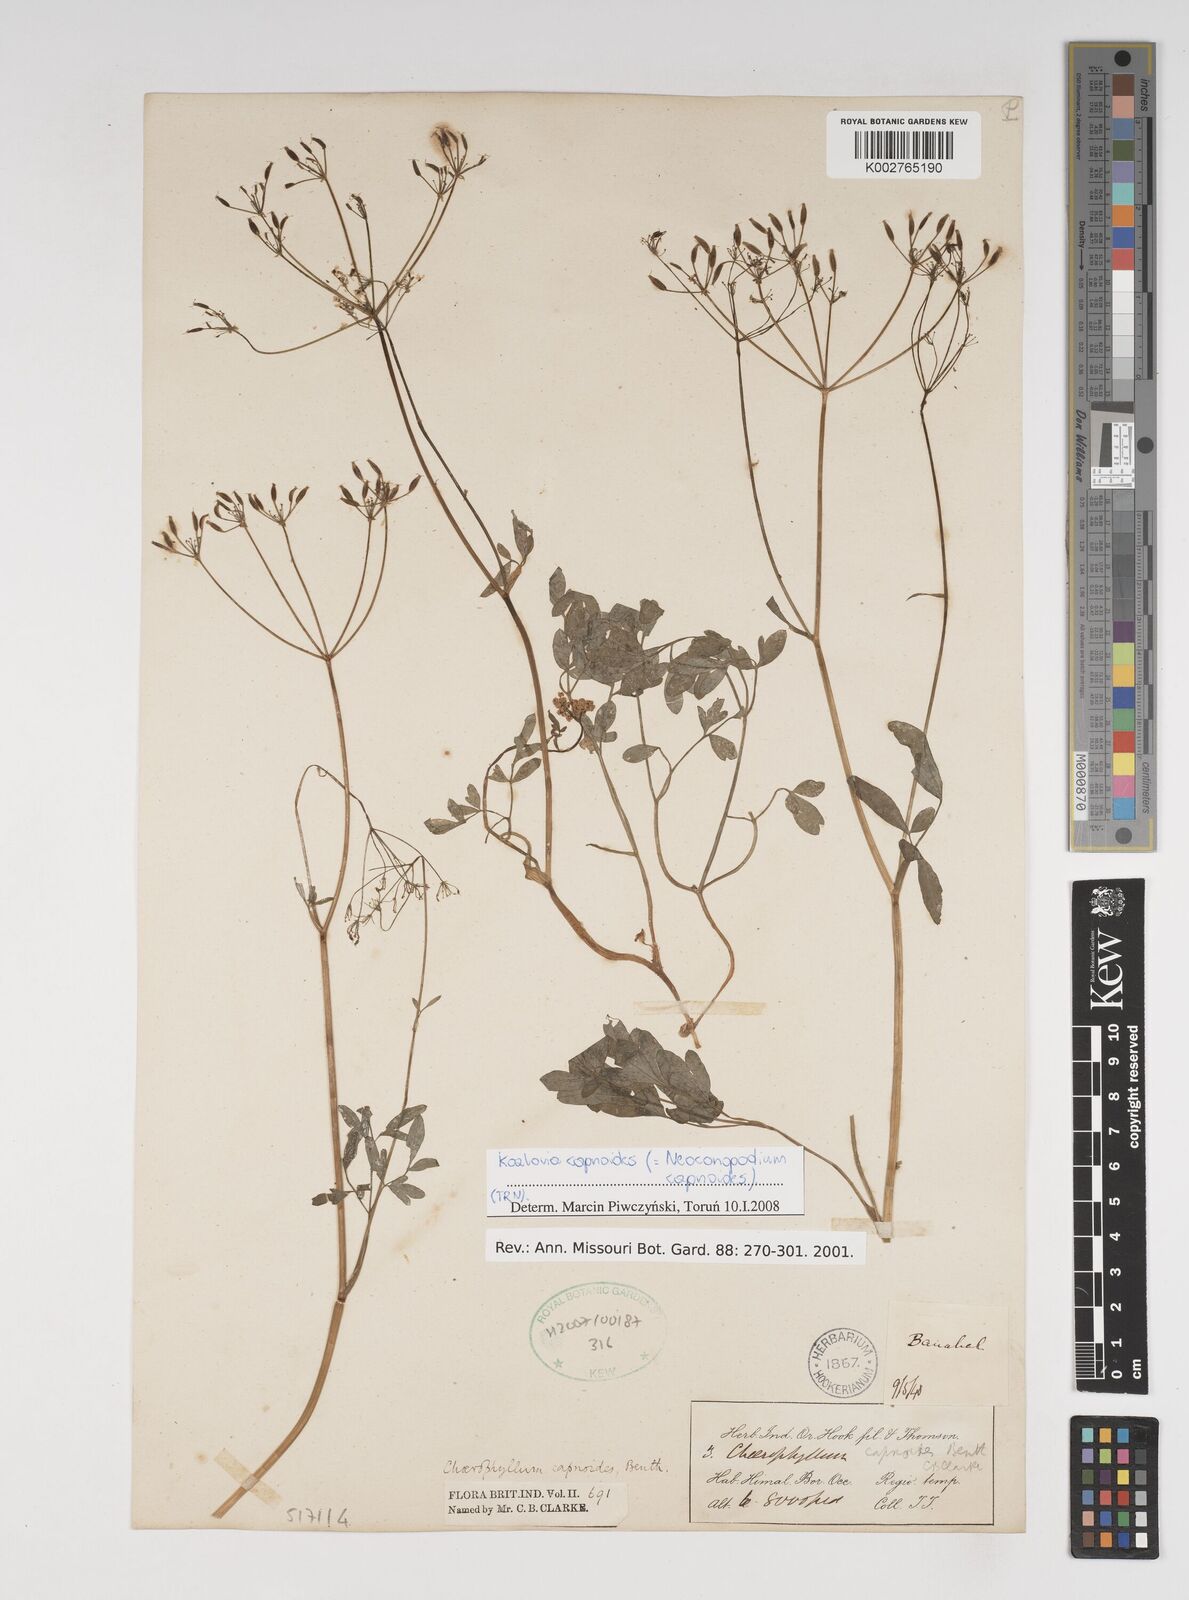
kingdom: Plantae
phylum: Tracheophyta
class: Magnoliopsida
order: Apiales
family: Apiaceae
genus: Kozlovia
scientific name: Kozlovia capnoides
